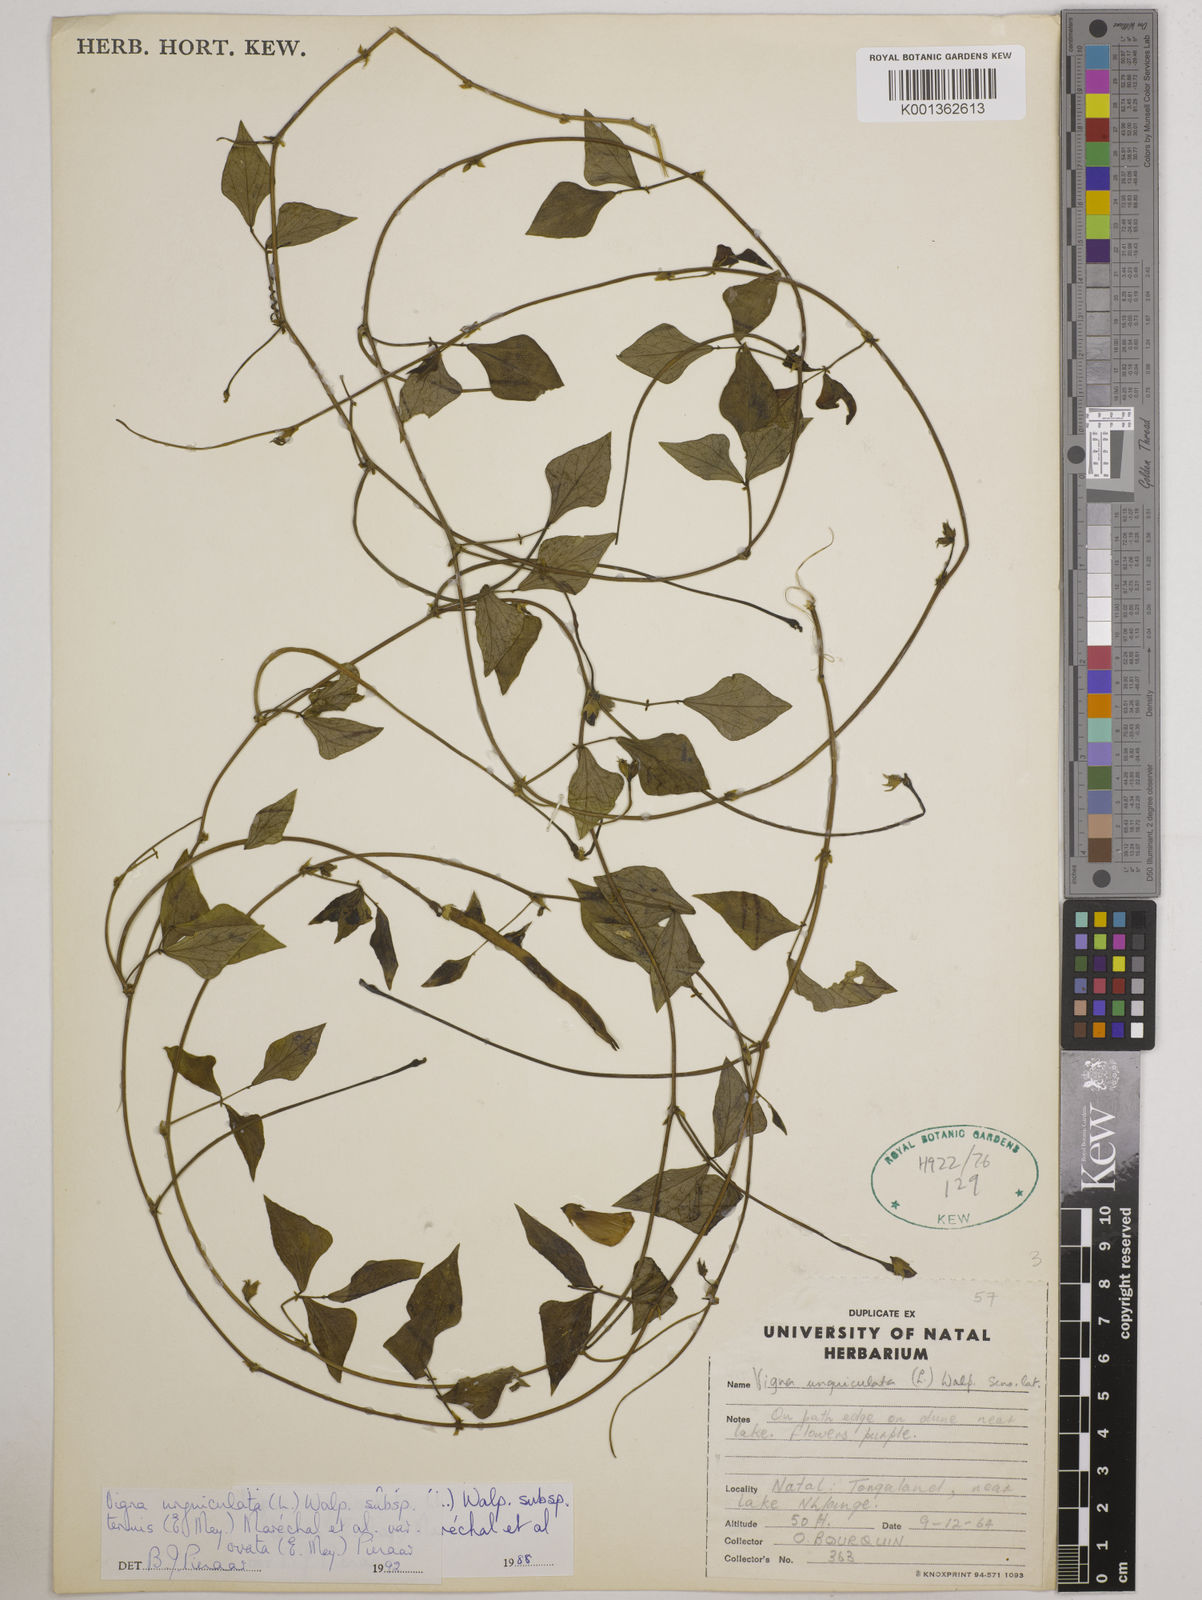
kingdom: Plantae
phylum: Tracheophyta
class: Magnoliopsida
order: Fabales
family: Fabaceae
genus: Vigna
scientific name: Vigna
